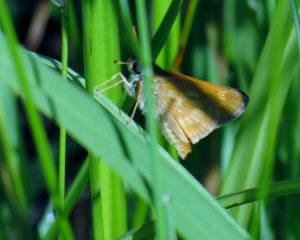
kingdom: Animalia
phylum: Arthropoda
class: Insecta
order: Lepidoptera
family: Hesperiidae
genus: Polites
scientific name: Polites
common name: Long Dash Skipper
